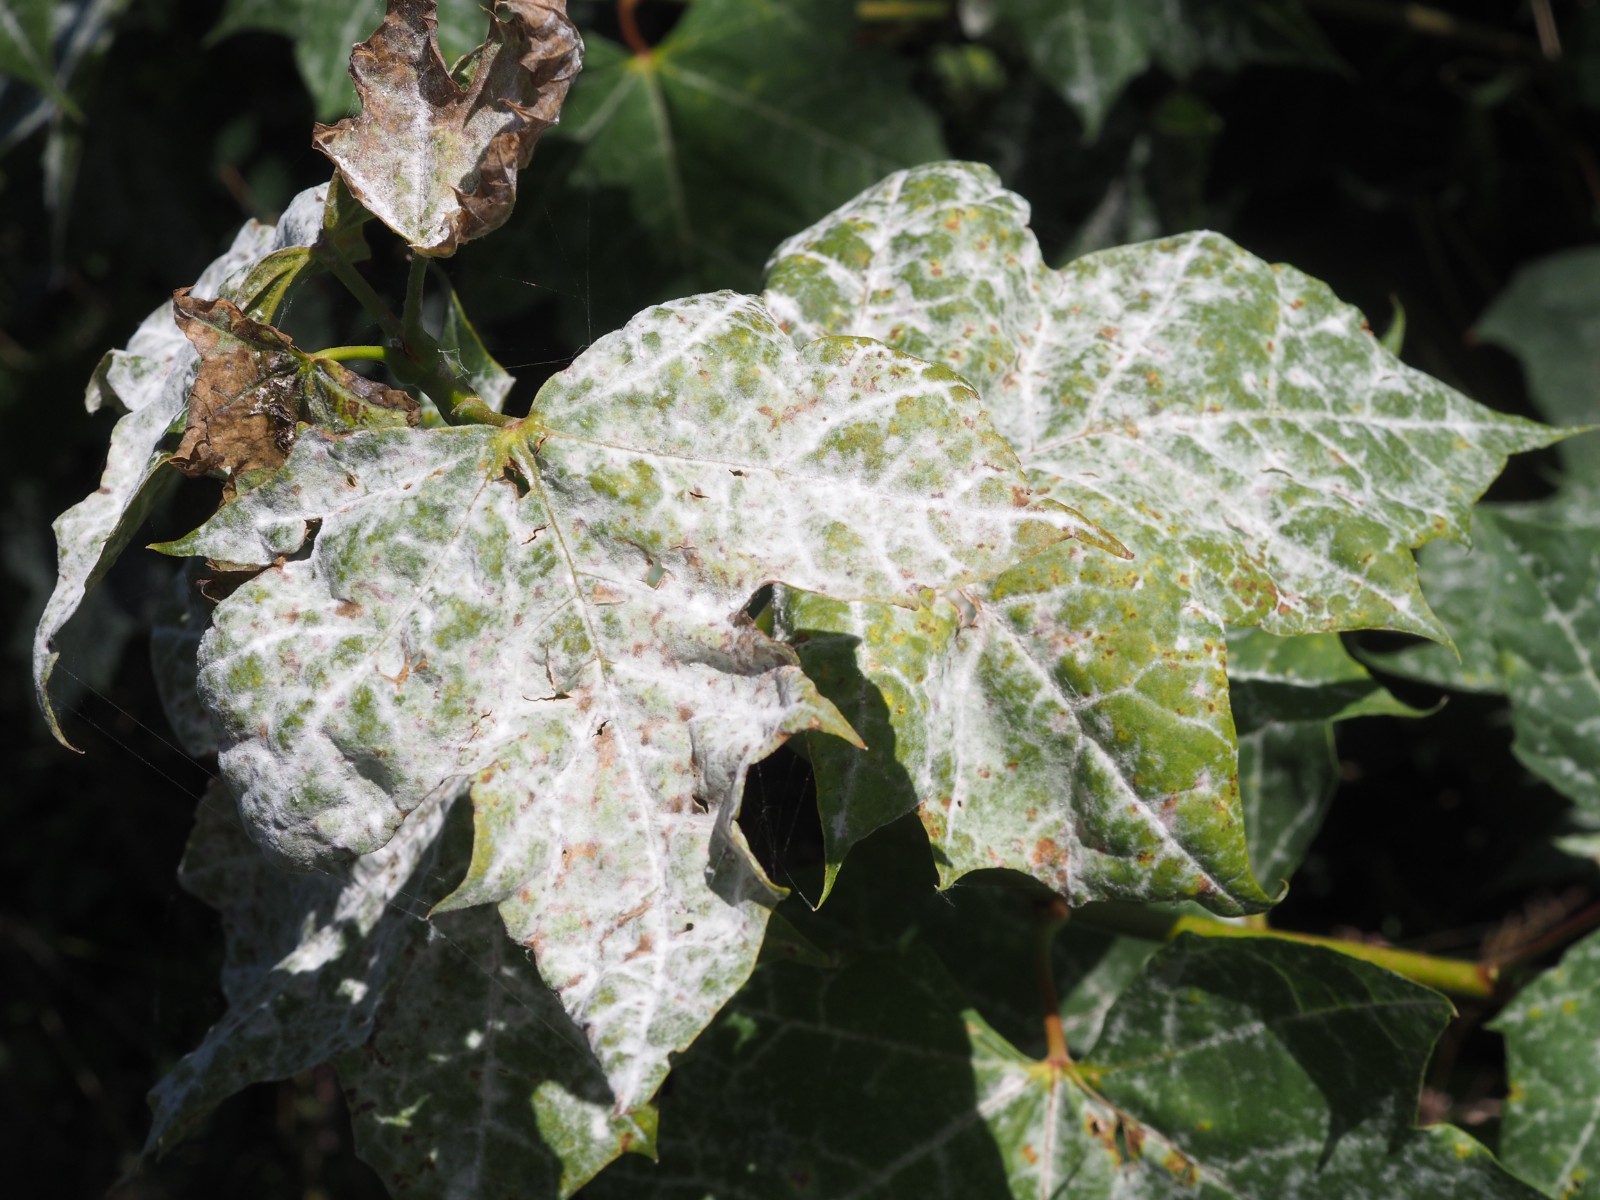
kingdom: Fungi
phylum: Ascomycota
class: Leotiomycetes
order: Helotiales
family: Erysiphaceae
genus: Sawadaea
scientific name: Sawadaea tulasnei
